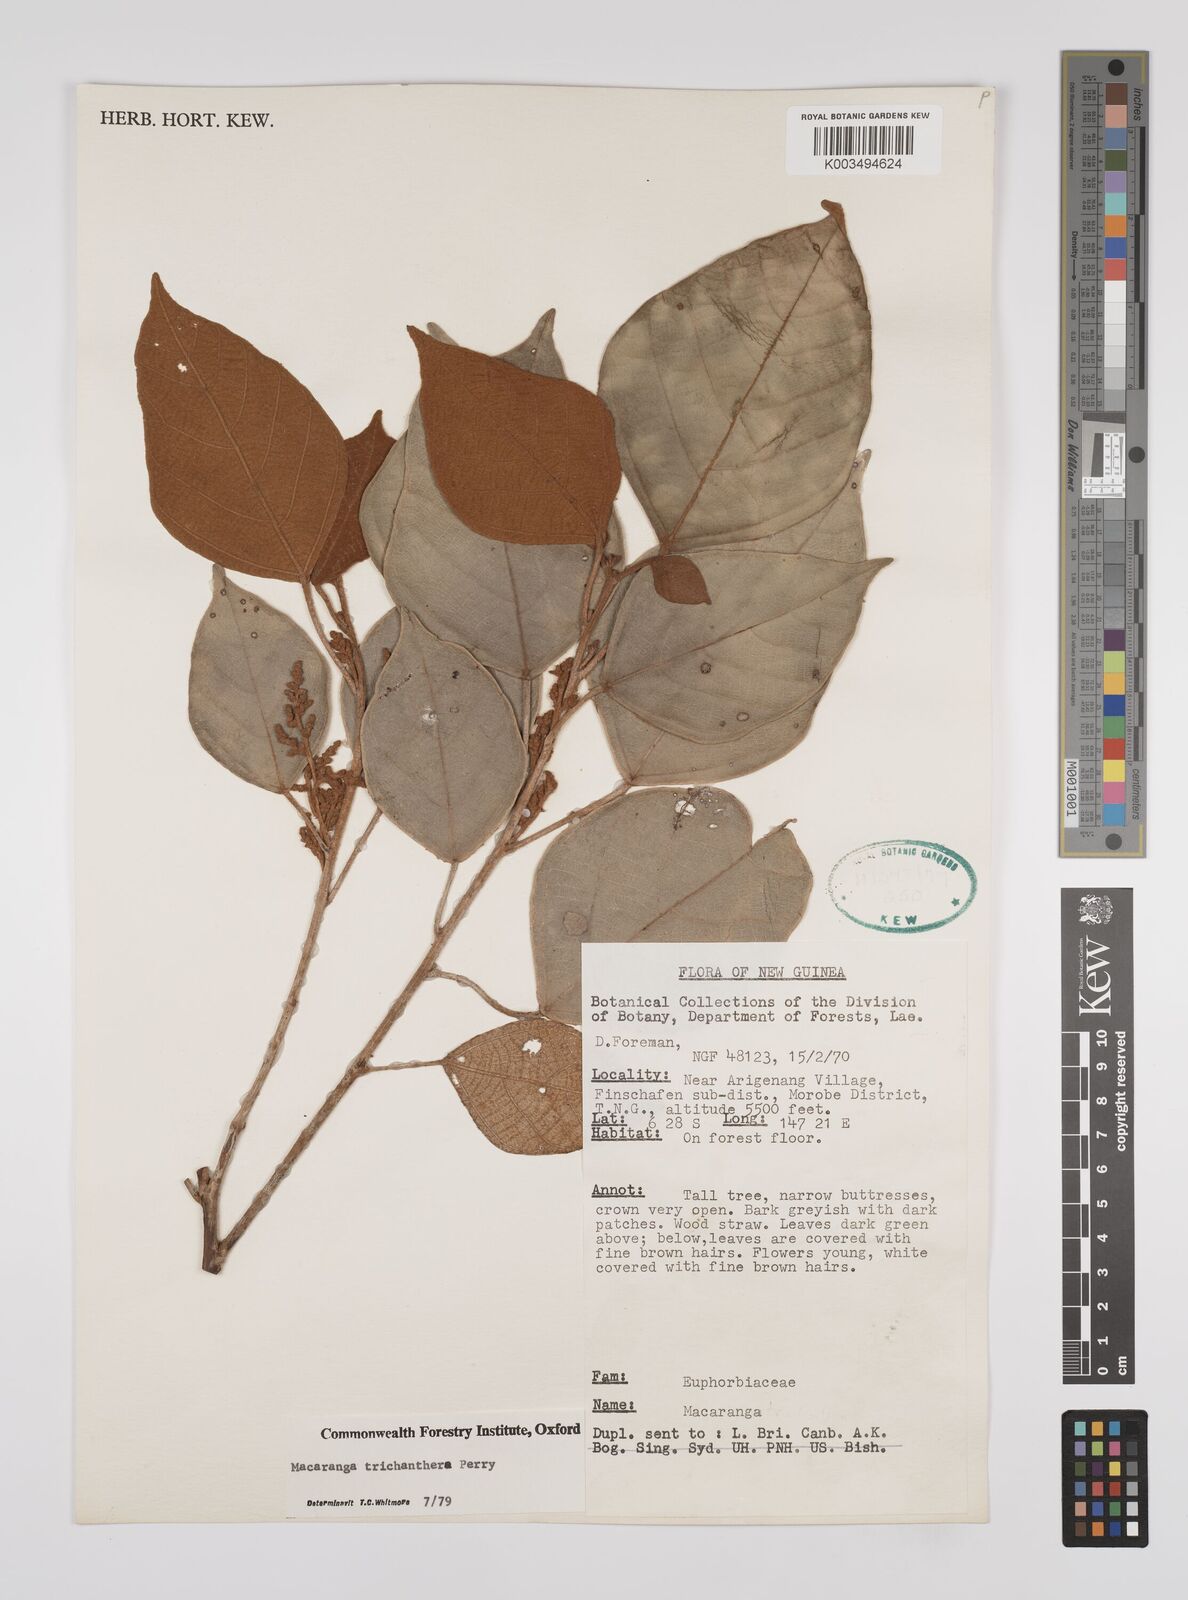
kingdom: Plantae
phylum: Tracheophyta
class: Magnoliopsida
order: Malpighiales
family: Euphorbiaceae
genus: Macaranga
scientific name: Macaranga trichanthera
